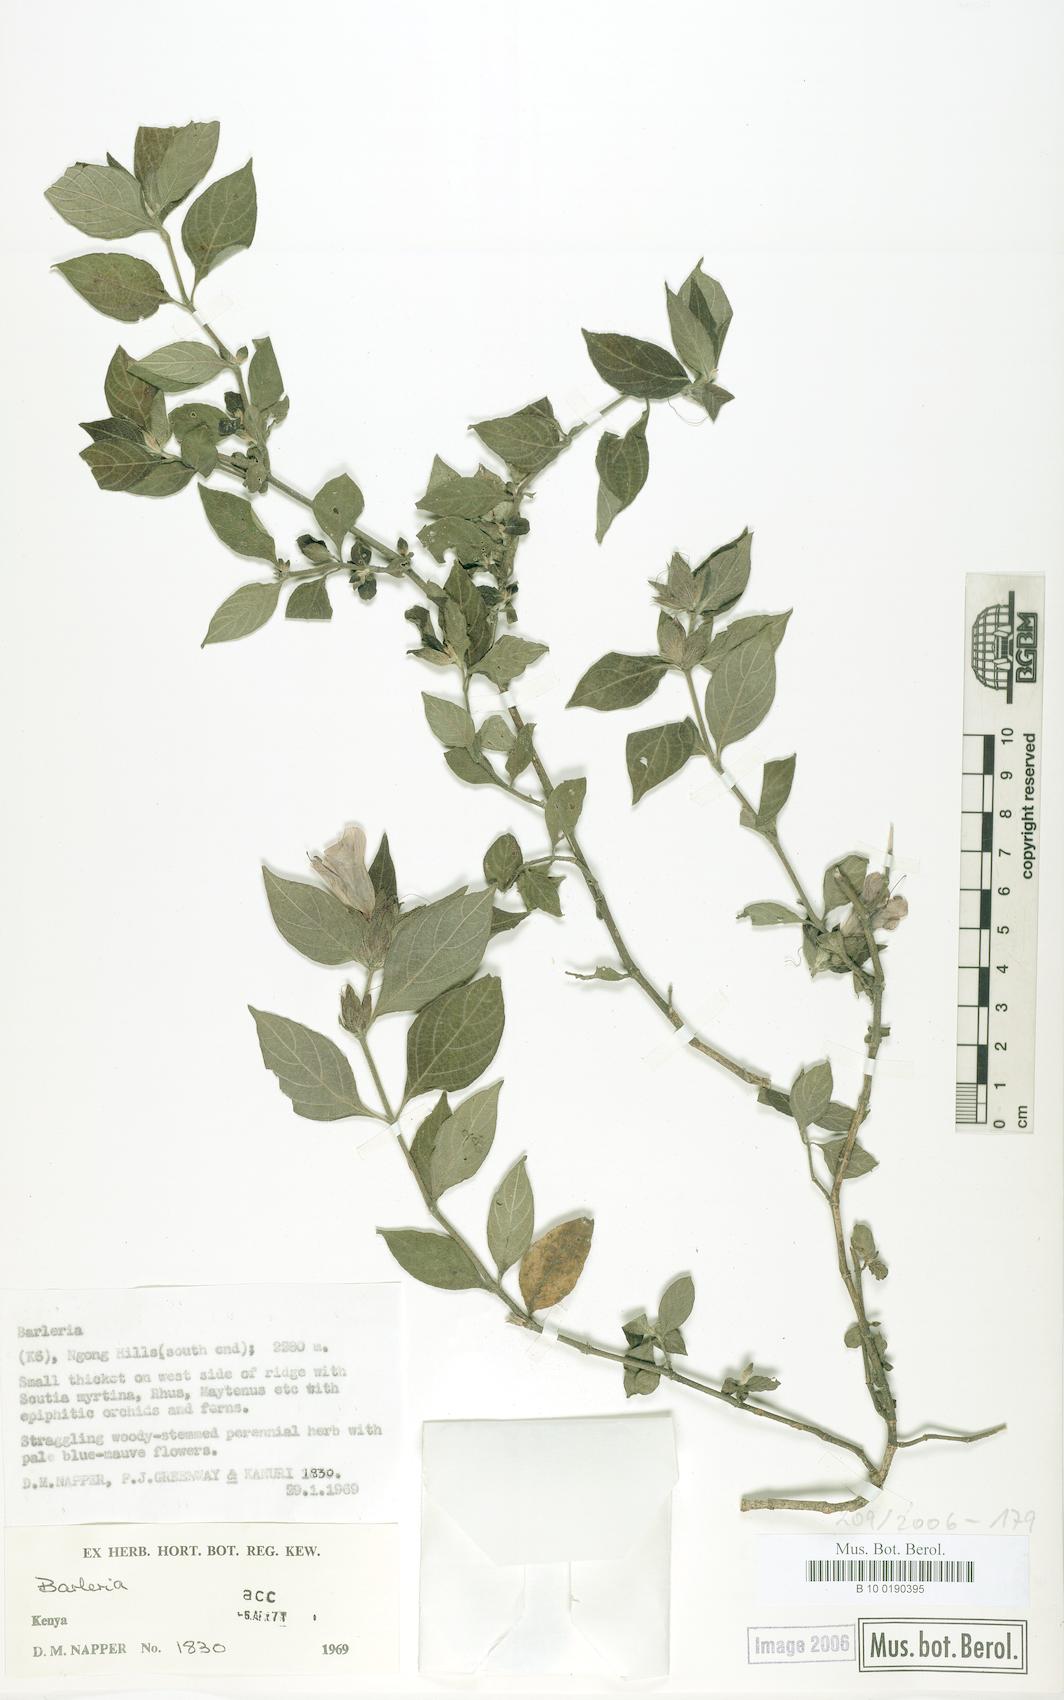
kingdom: Plantae
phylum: Tracheophyta
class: Magnoliopsida
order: Lamiales
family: Acanthaceae
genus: Barleria
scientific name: Barleria ventricosa
